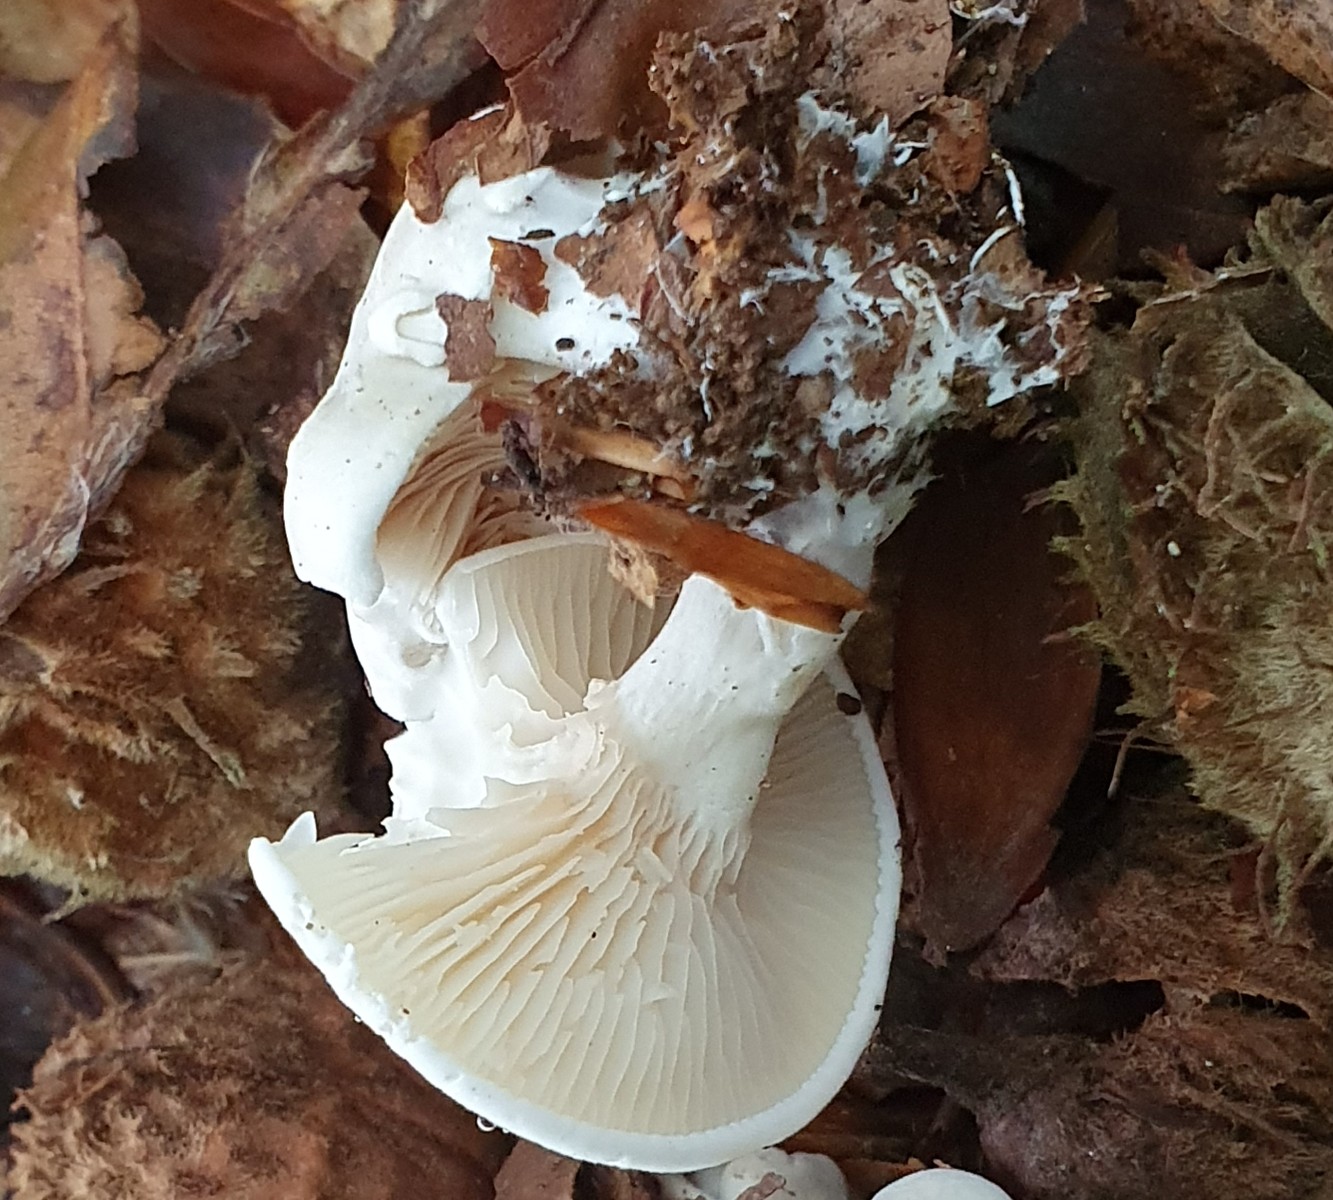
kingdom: Fungi
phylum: Basidiomycota
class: Agaricomycetes
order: Agaricales
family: Entolomataceae
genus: Clitopilus
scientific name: Clitopilus prunulus
